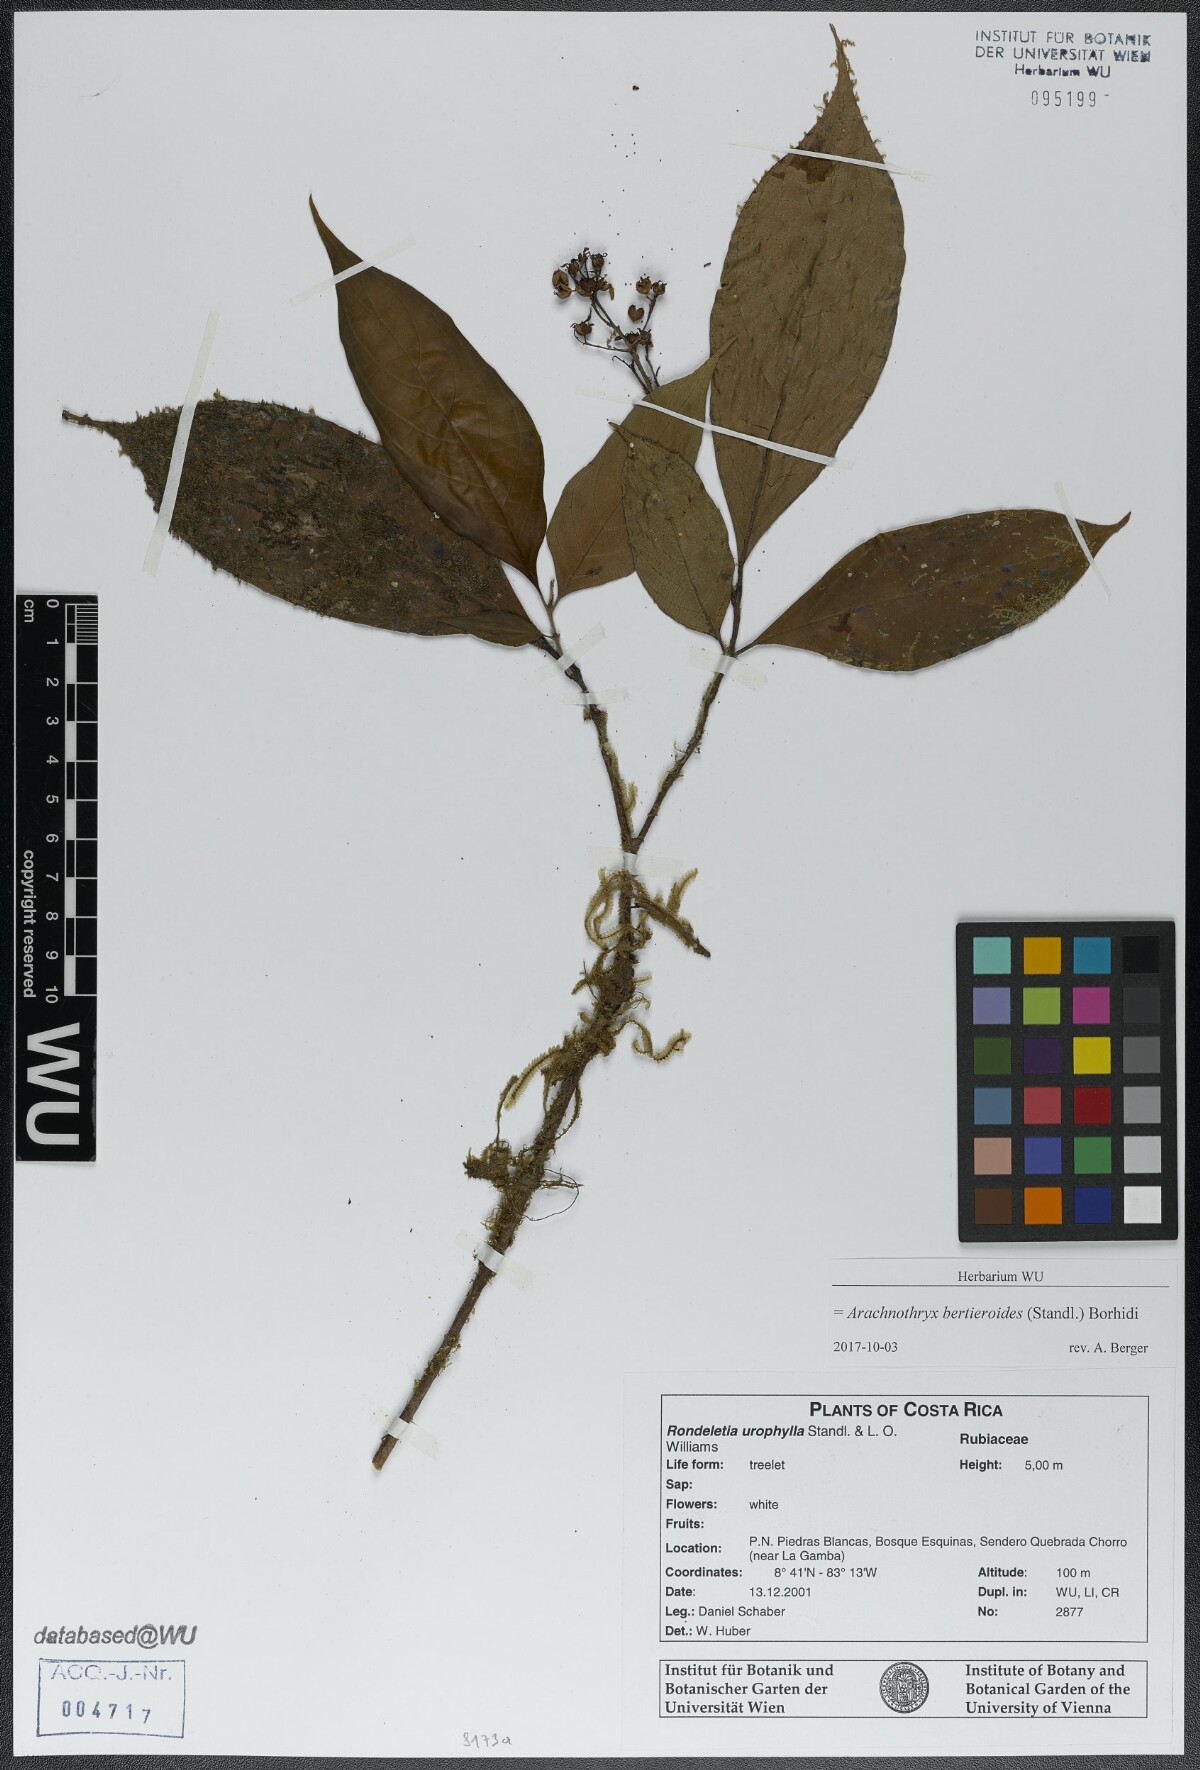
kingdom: Plantae
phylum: Tracheophyta
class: Magnoliopsida
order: Gentianales
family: Rubiaceae
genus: Arachnothryx
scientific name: Arachnothryx bertieroides
